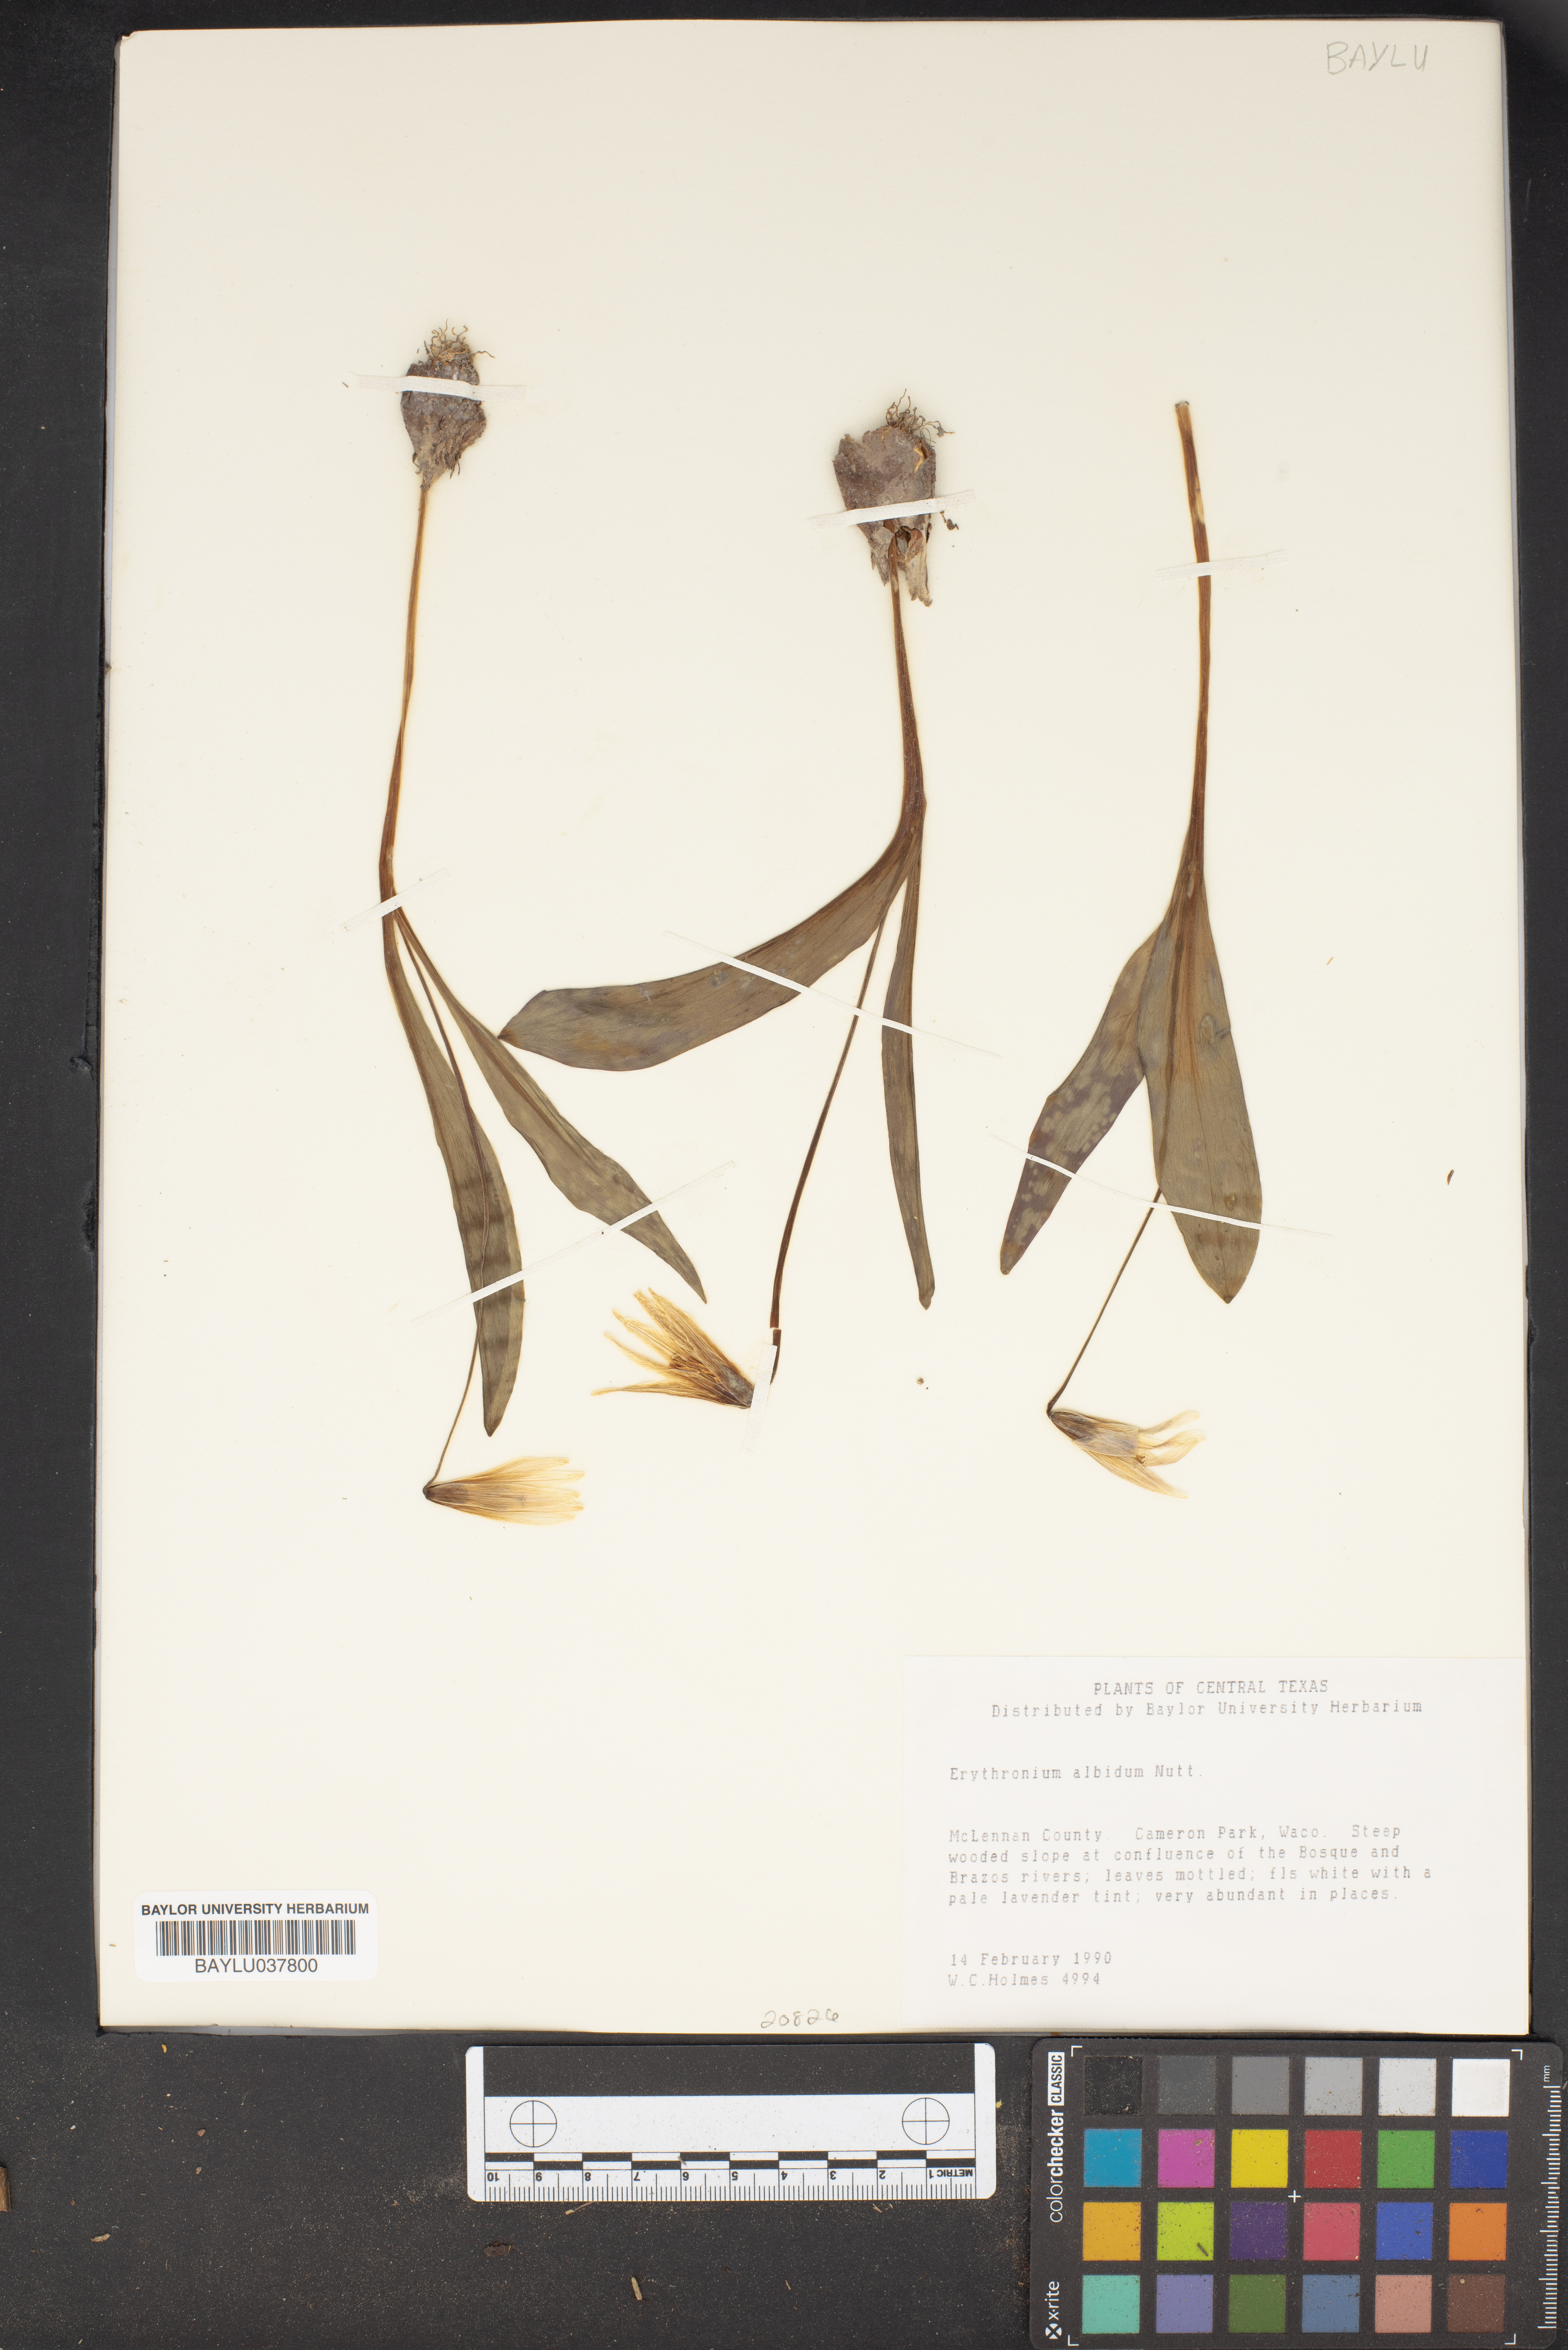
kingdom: Plantae
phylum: Tracheophyta
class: Liliopsida
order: Liliales
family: Liliaceae
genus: Erythronium
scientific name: Erythronium albidum
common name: White trout-lily
